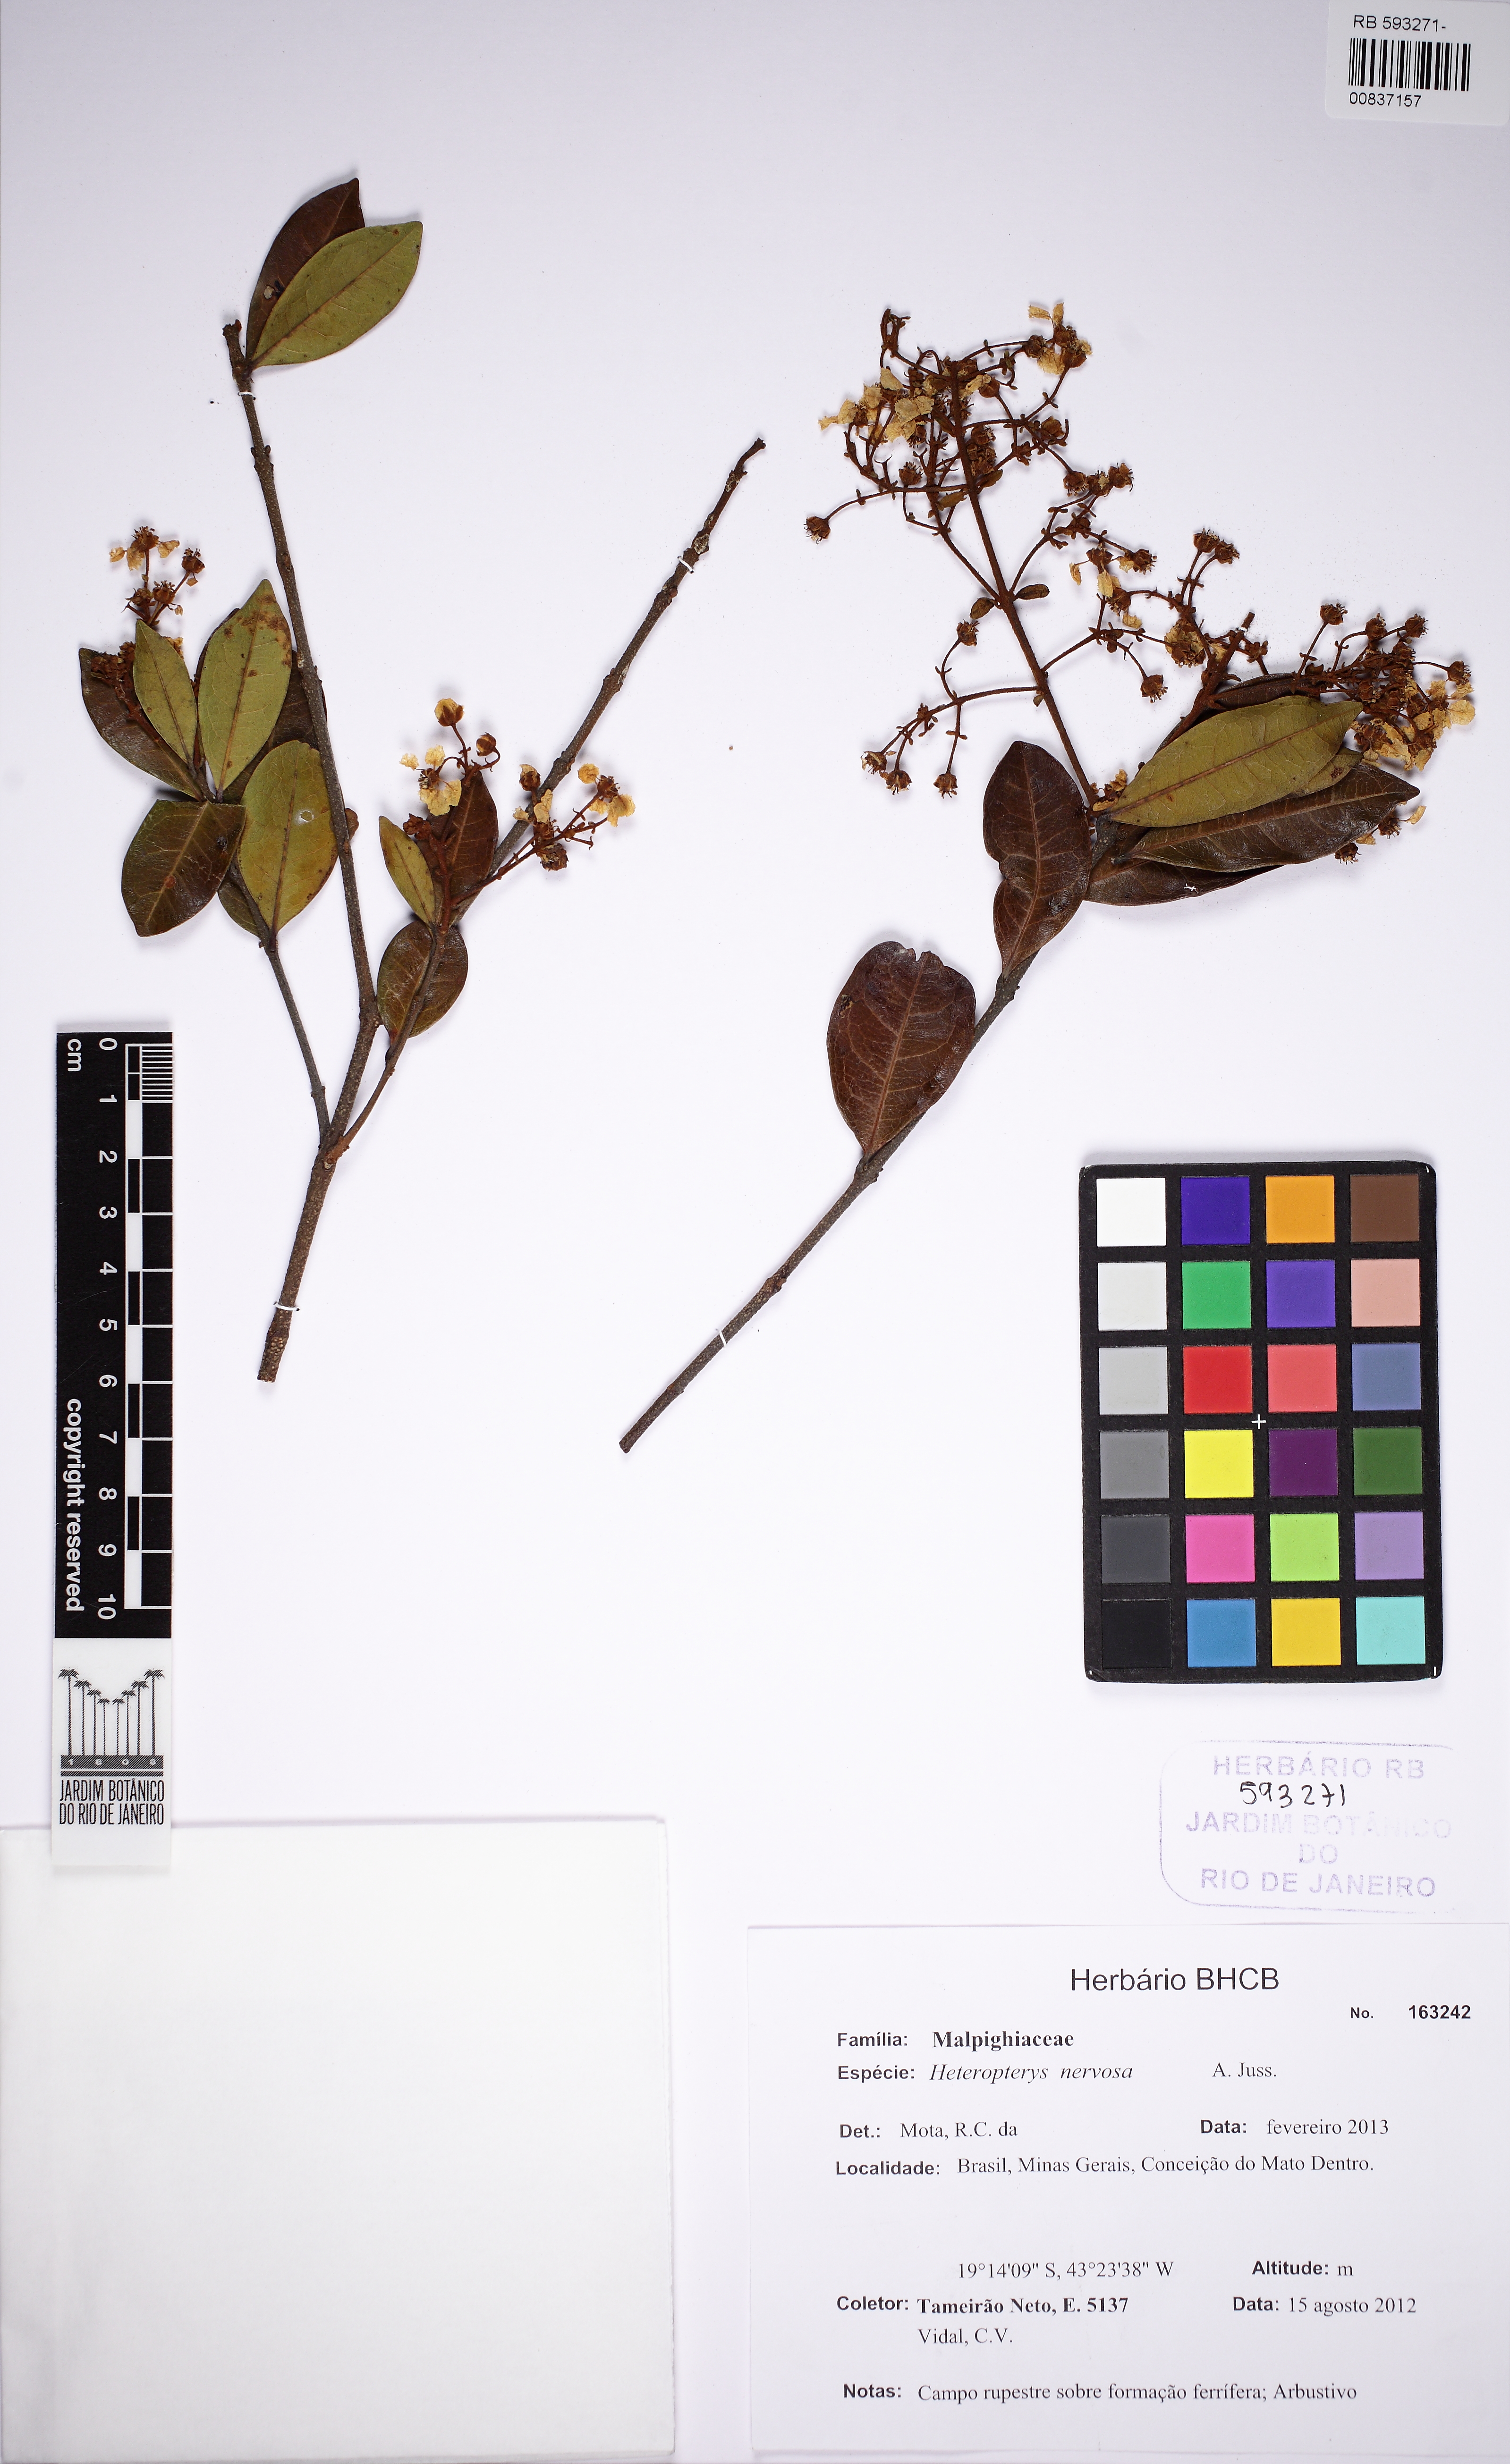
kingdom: Plantae
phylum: Tracheophyta
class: Magnoliopsida
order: Malpighiales
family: Malpighiaceae
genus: Heteropterys
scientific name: Heteropterys nervosa
